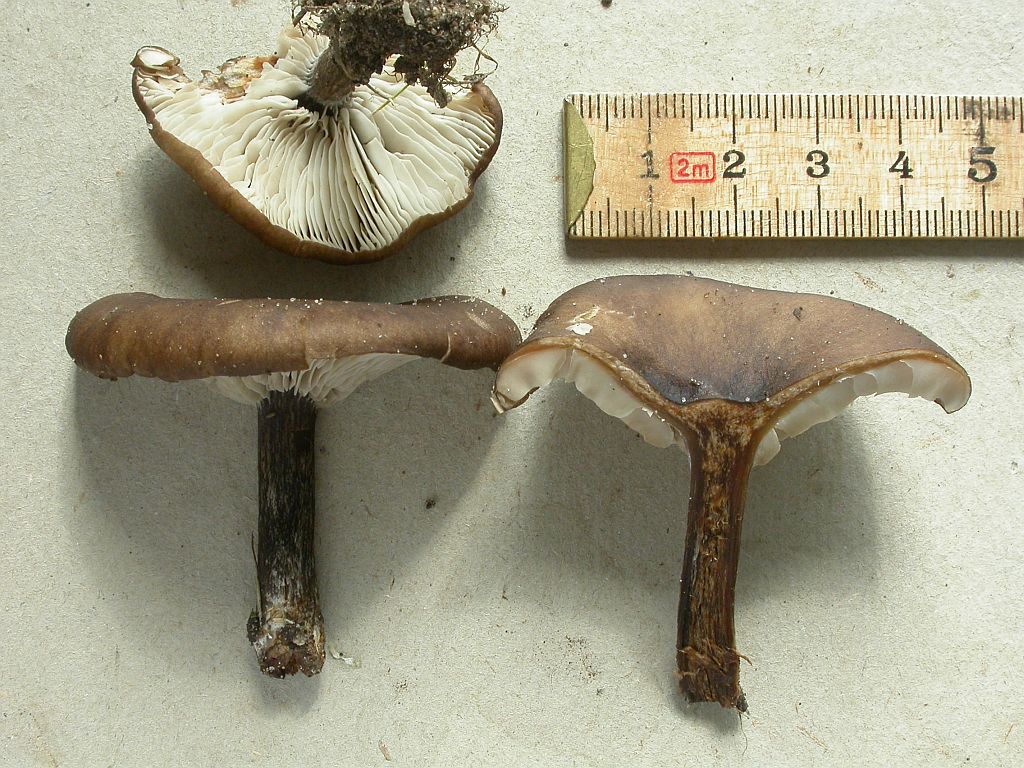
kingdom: Fungi
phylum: Basidiomycota
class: Agaricomycetes
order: Agaricales
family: Tricholomataceae
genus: Melanoleuca
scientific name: Melanoleuca
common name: munkehat
